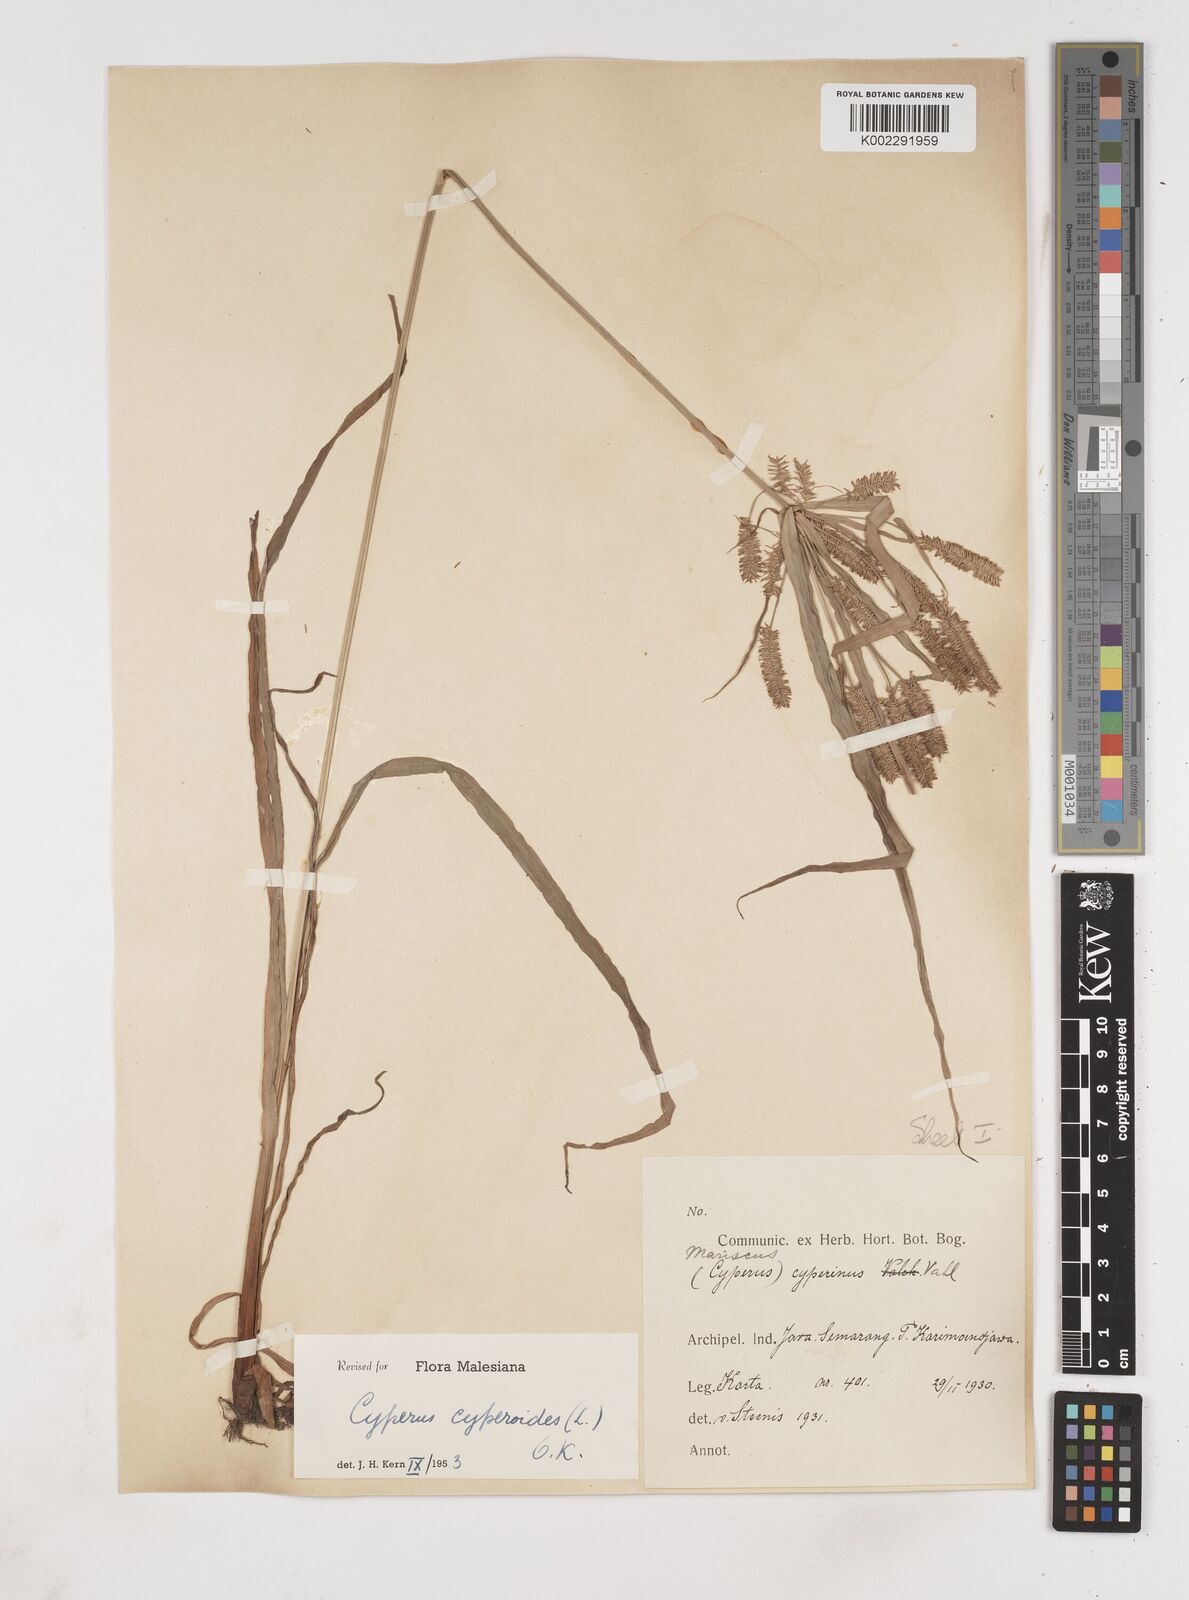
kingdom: Plantae
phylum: Tracheophyta
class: Liliopsida
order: Poales
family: Cyperaceae
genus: Cyperus
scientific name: Cyperus cyperoides
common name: Pacific island flat sedge
